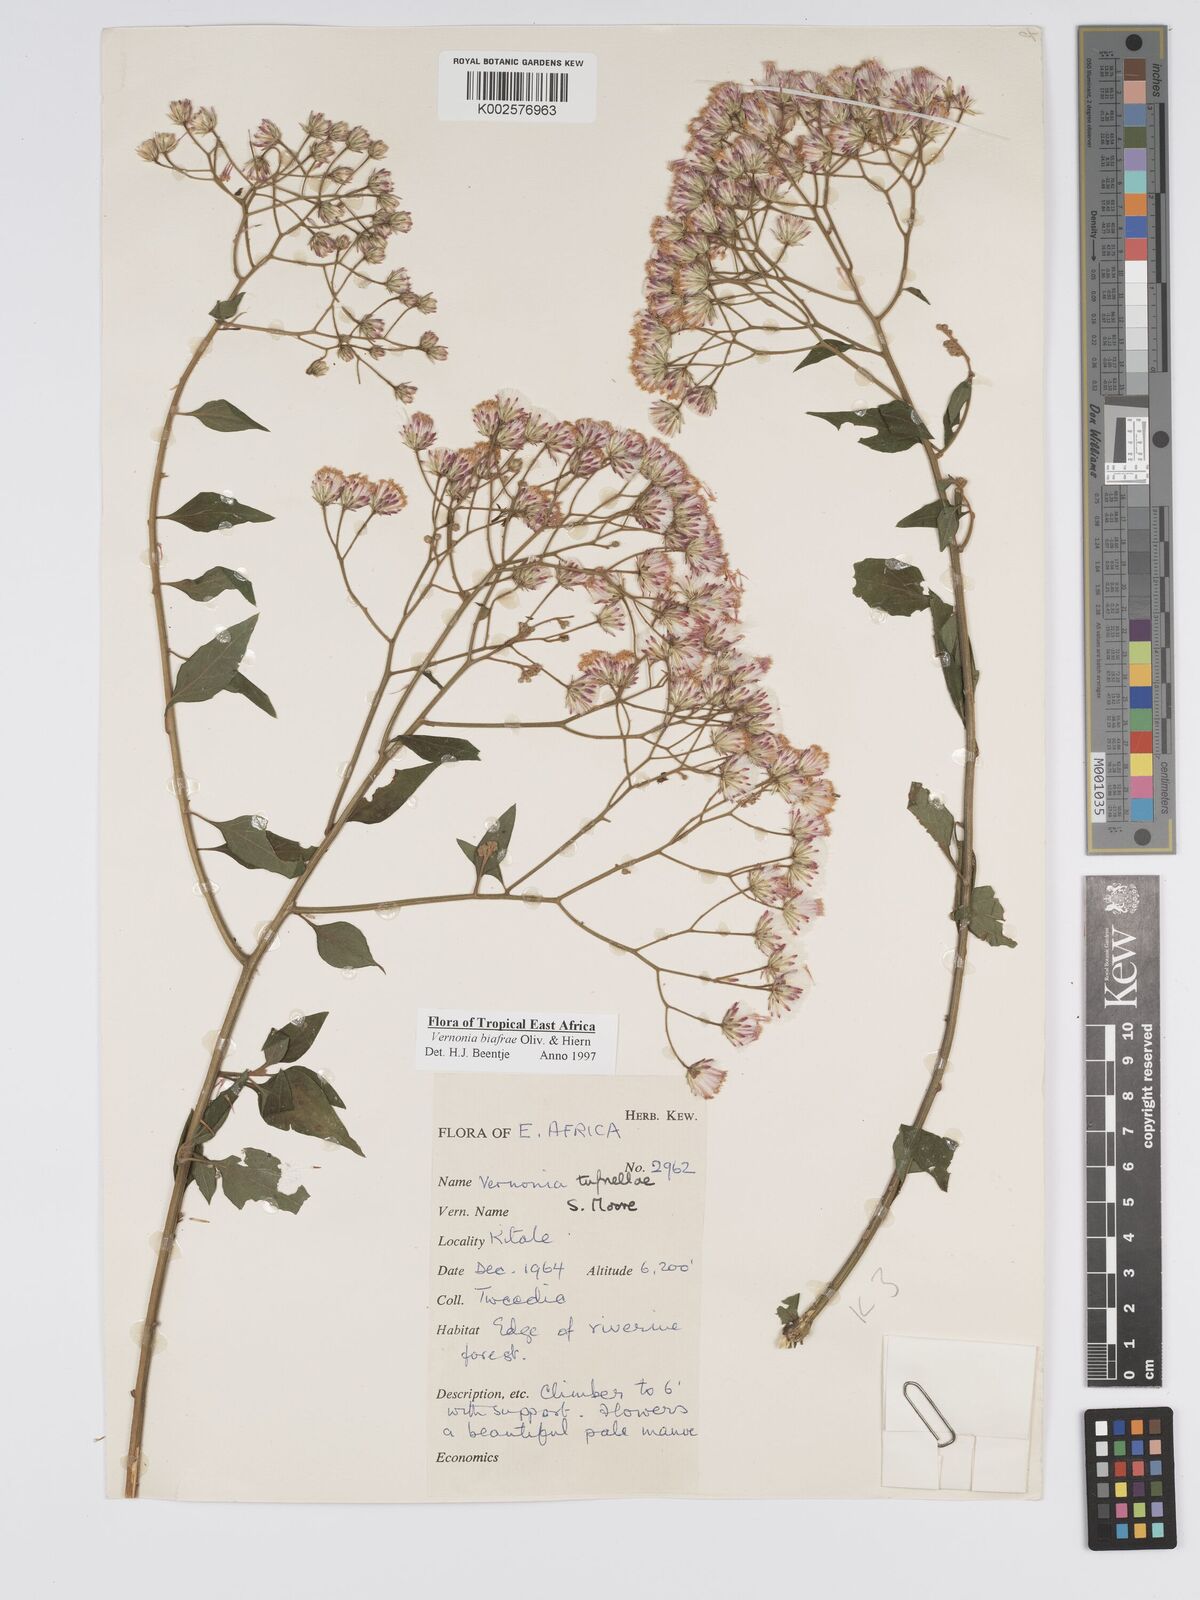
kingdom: Plantae
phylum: Tracheophyta
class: Magnoliopsida
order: Asterales
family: Asteraceae
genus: Distephanus
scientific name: Distephanus biafrae
